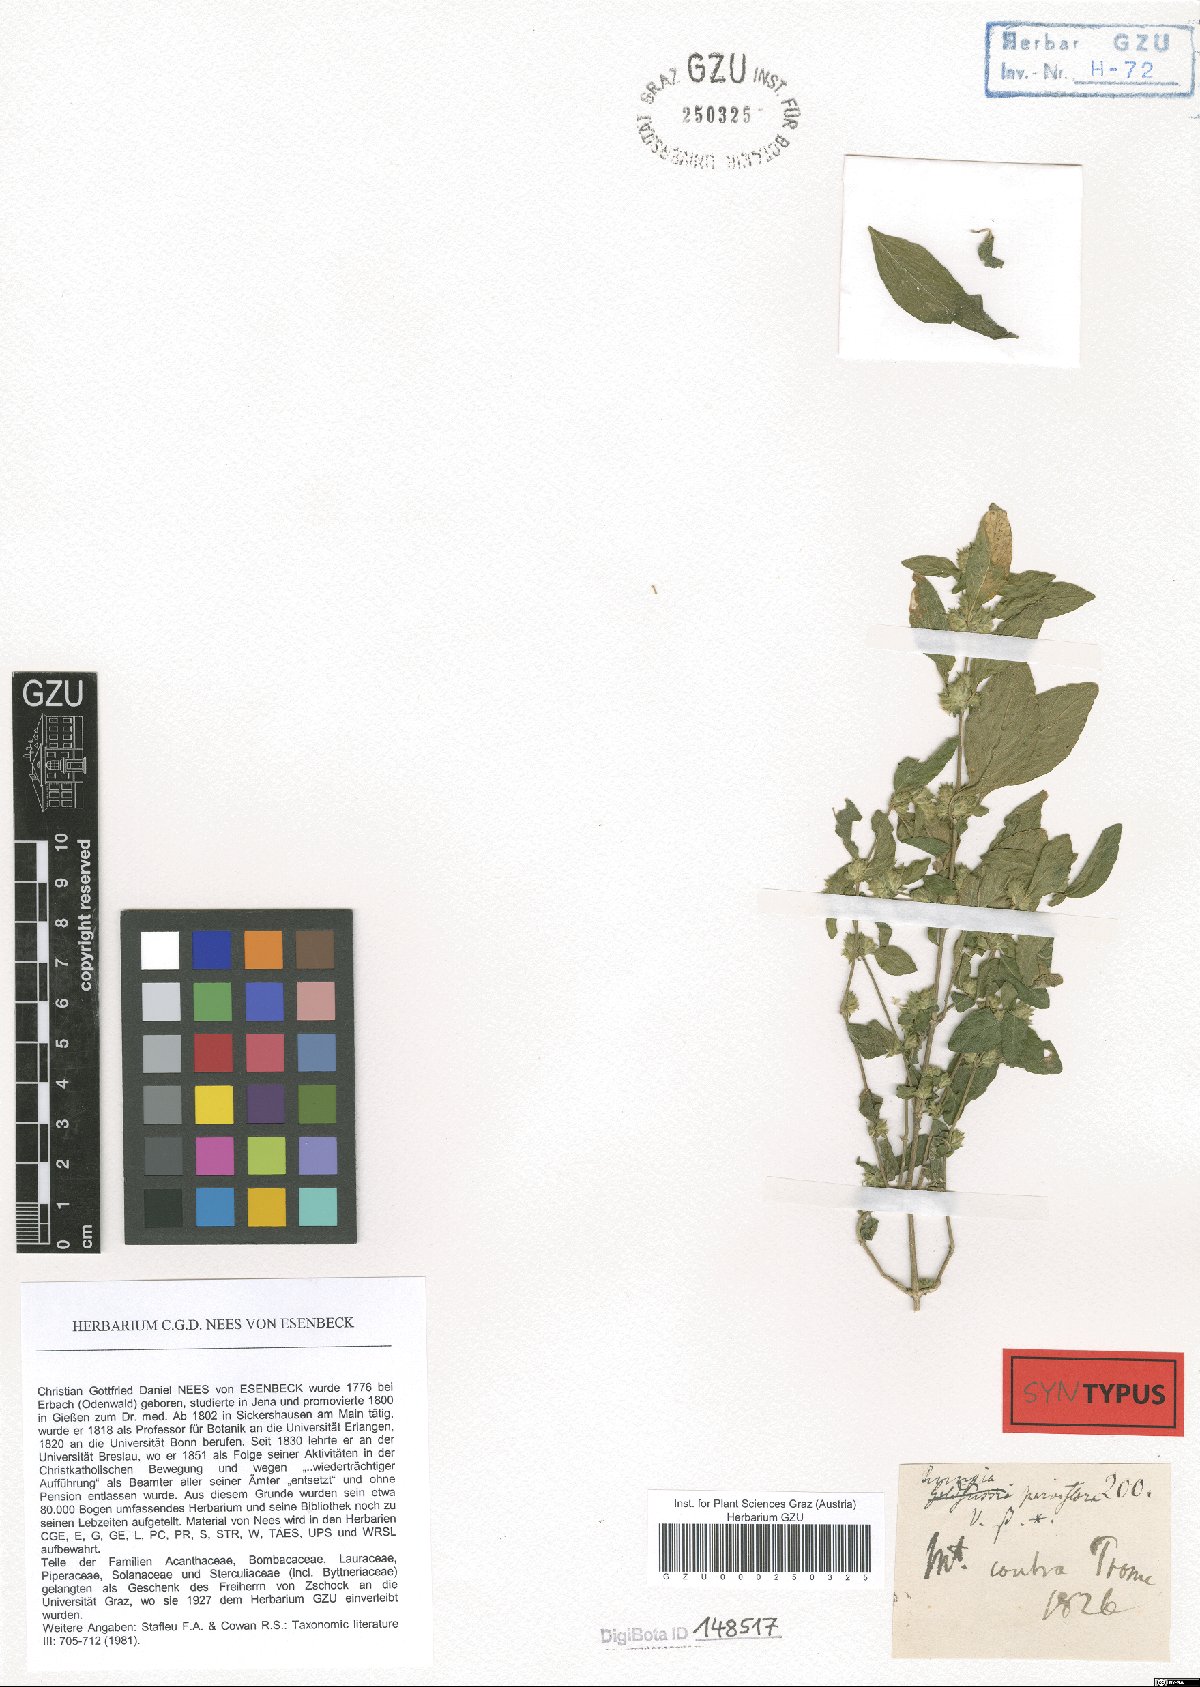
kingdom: Plantae
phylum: Tracheophyta
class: Magnoliopsida
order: Lamiales
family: Acanthaceae
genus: Rungia
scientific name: Rungia parviflora
